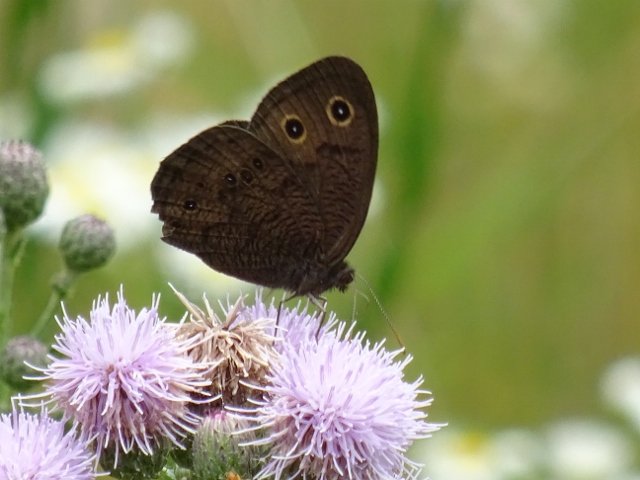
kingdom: Animalia
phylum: Arthropoda
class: Insecta
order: Lepidoptera
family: Nymphalidae
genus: Cercyonis
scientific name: Cercyonis pegala
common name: Common Wood-Nymph
